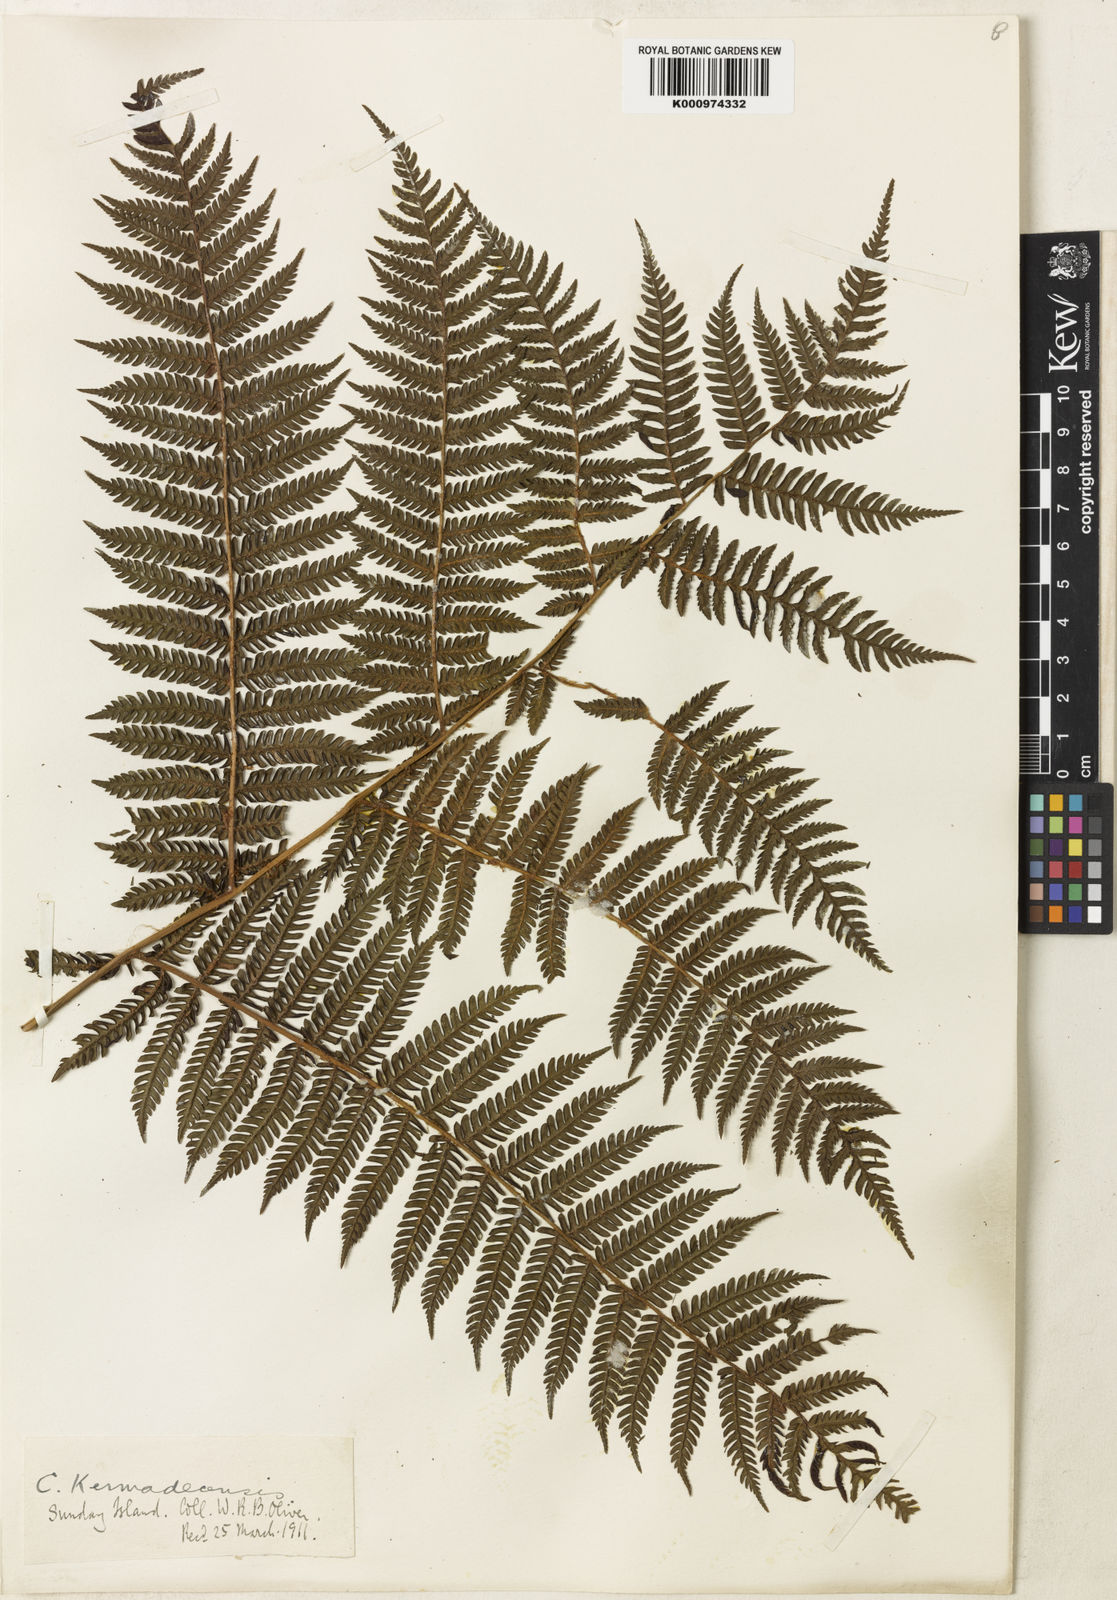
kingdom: Plantae
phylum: Tracheophyta
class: Polypodiopsida
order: Cyatheales
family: Cyatheaceae
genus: Alsophila
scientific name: Alsophila kermadecensis
